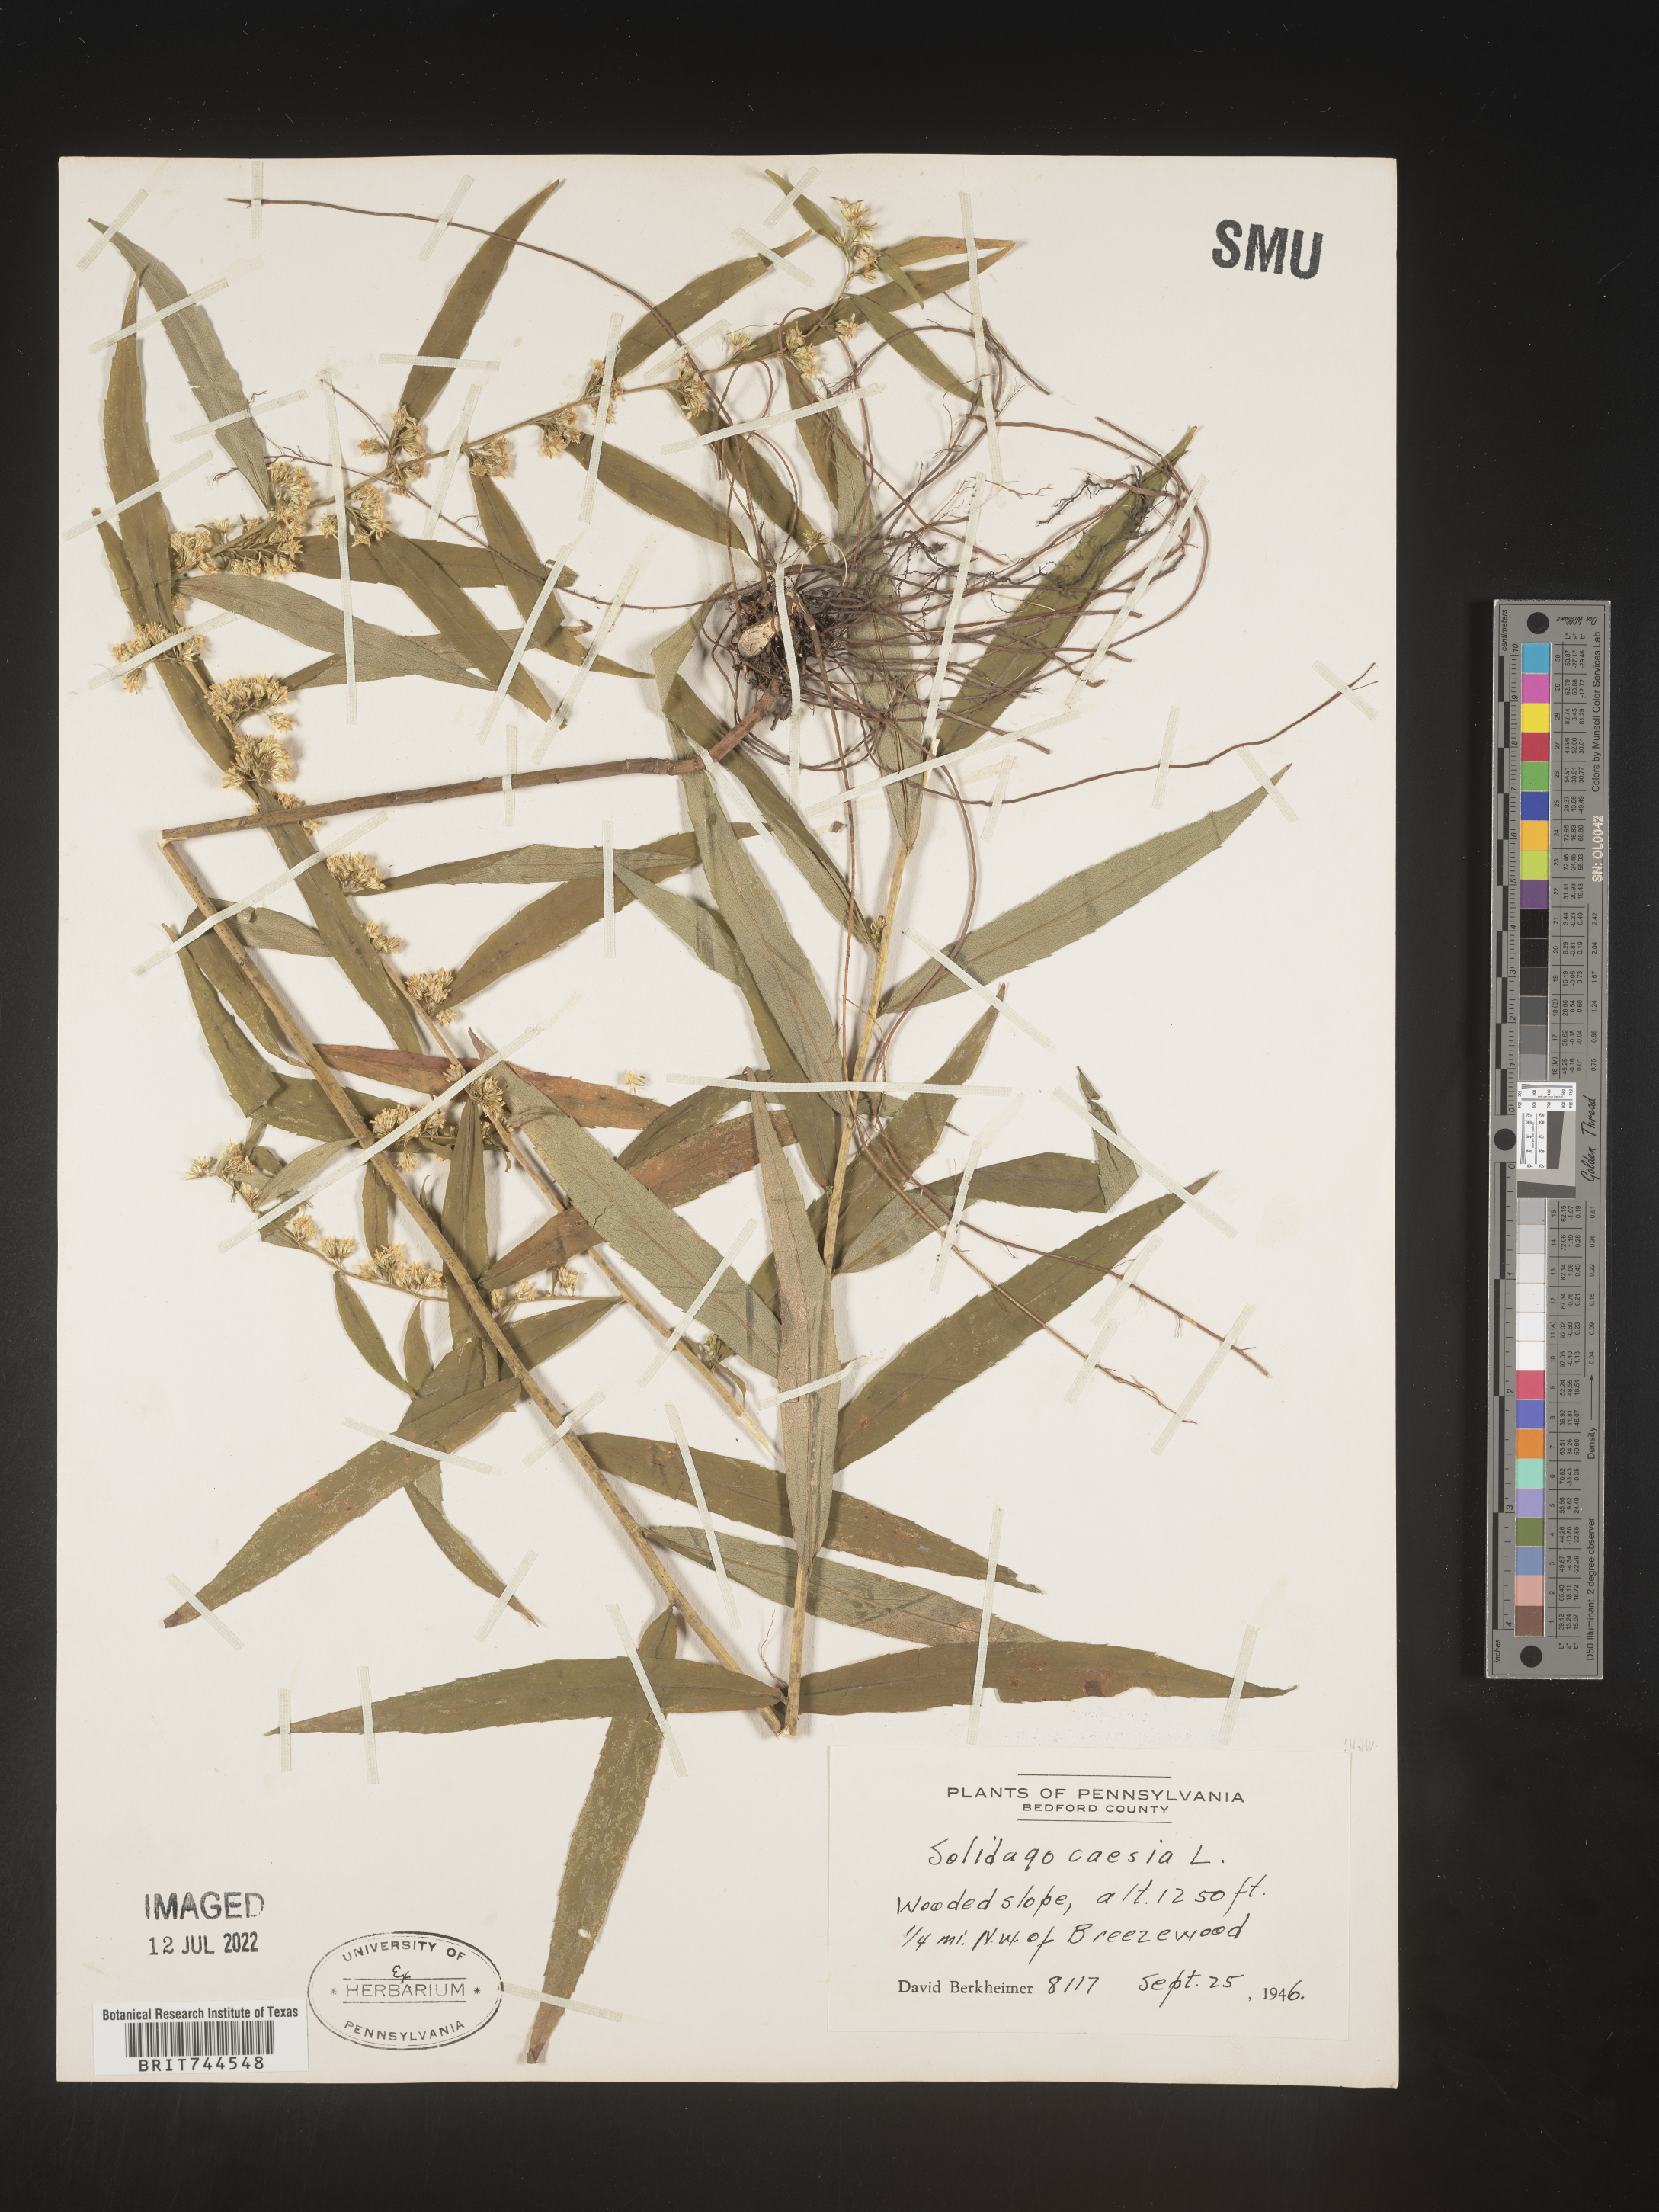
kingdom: Plantae
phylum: Tracheophyta
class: Magnoliopsida
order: Asterales
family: Asteraceae
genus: Solidago
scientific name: Solidago caesia
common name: Woodland goldenrod
